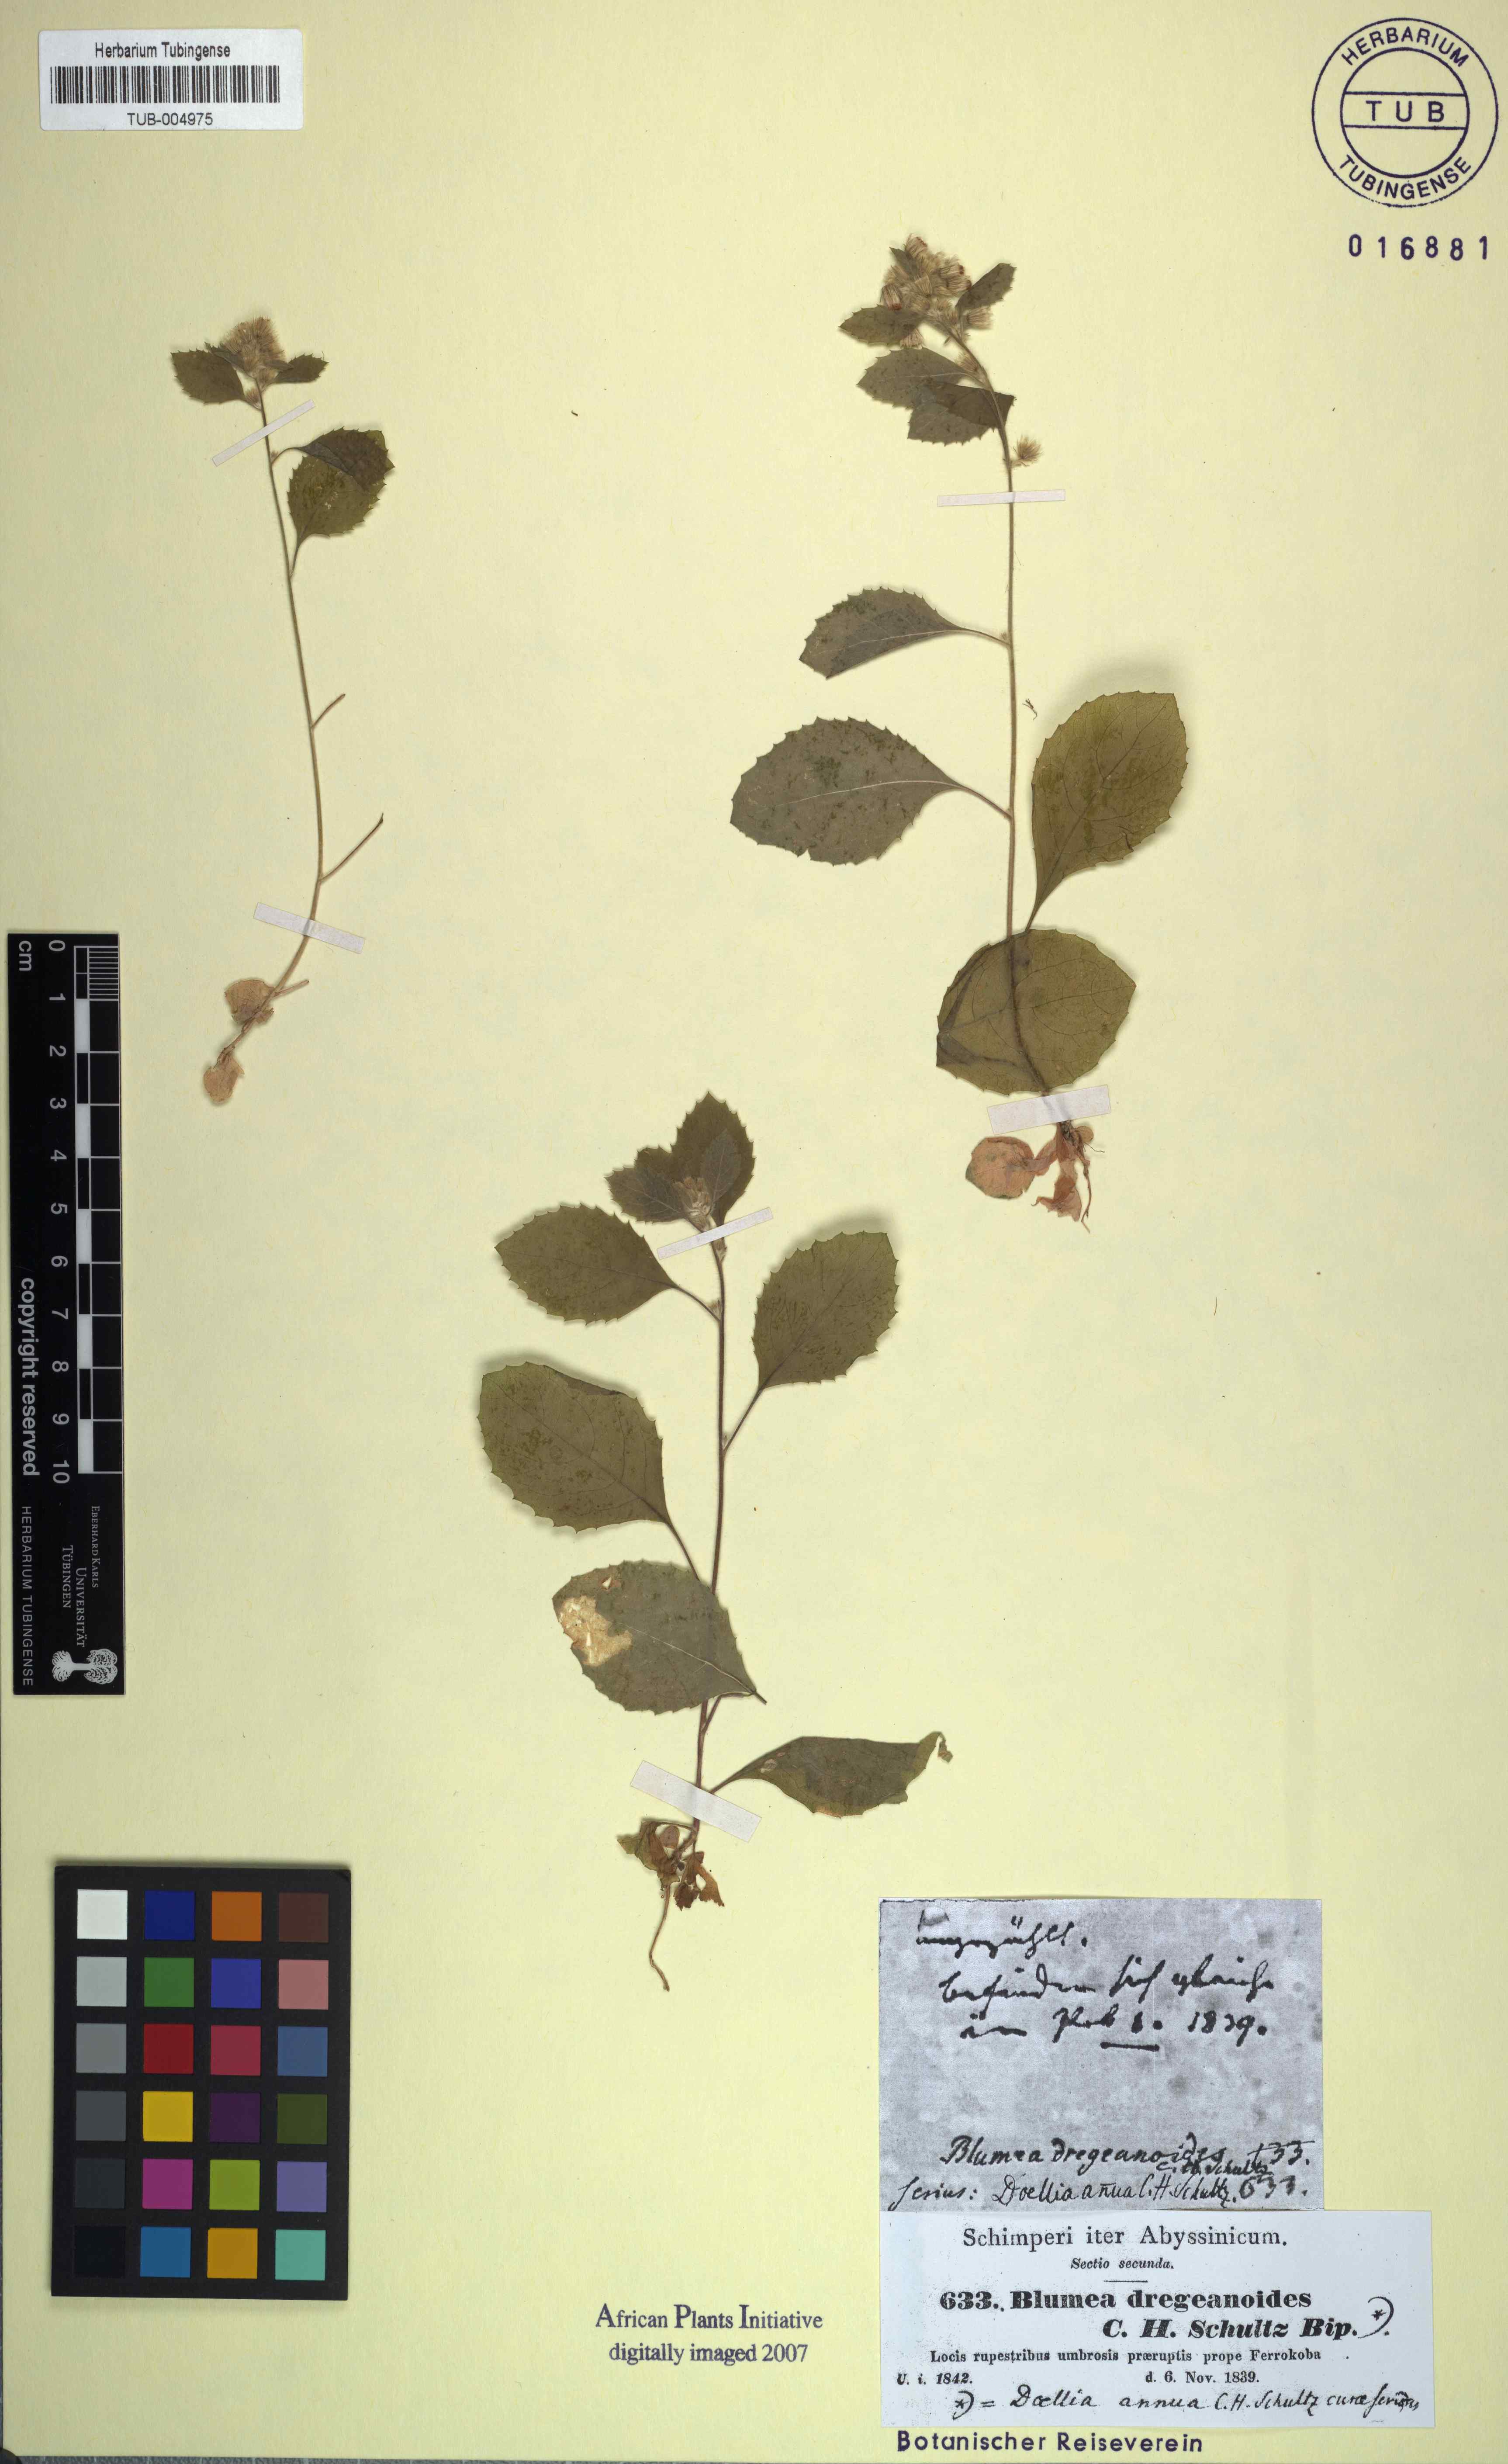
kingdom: Plantae
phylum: Tracheophyta
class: Magnoliopsida
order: Asterales
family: Asteraceae
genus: Blumea
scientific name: Blumea lacera
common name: Malay blumea
